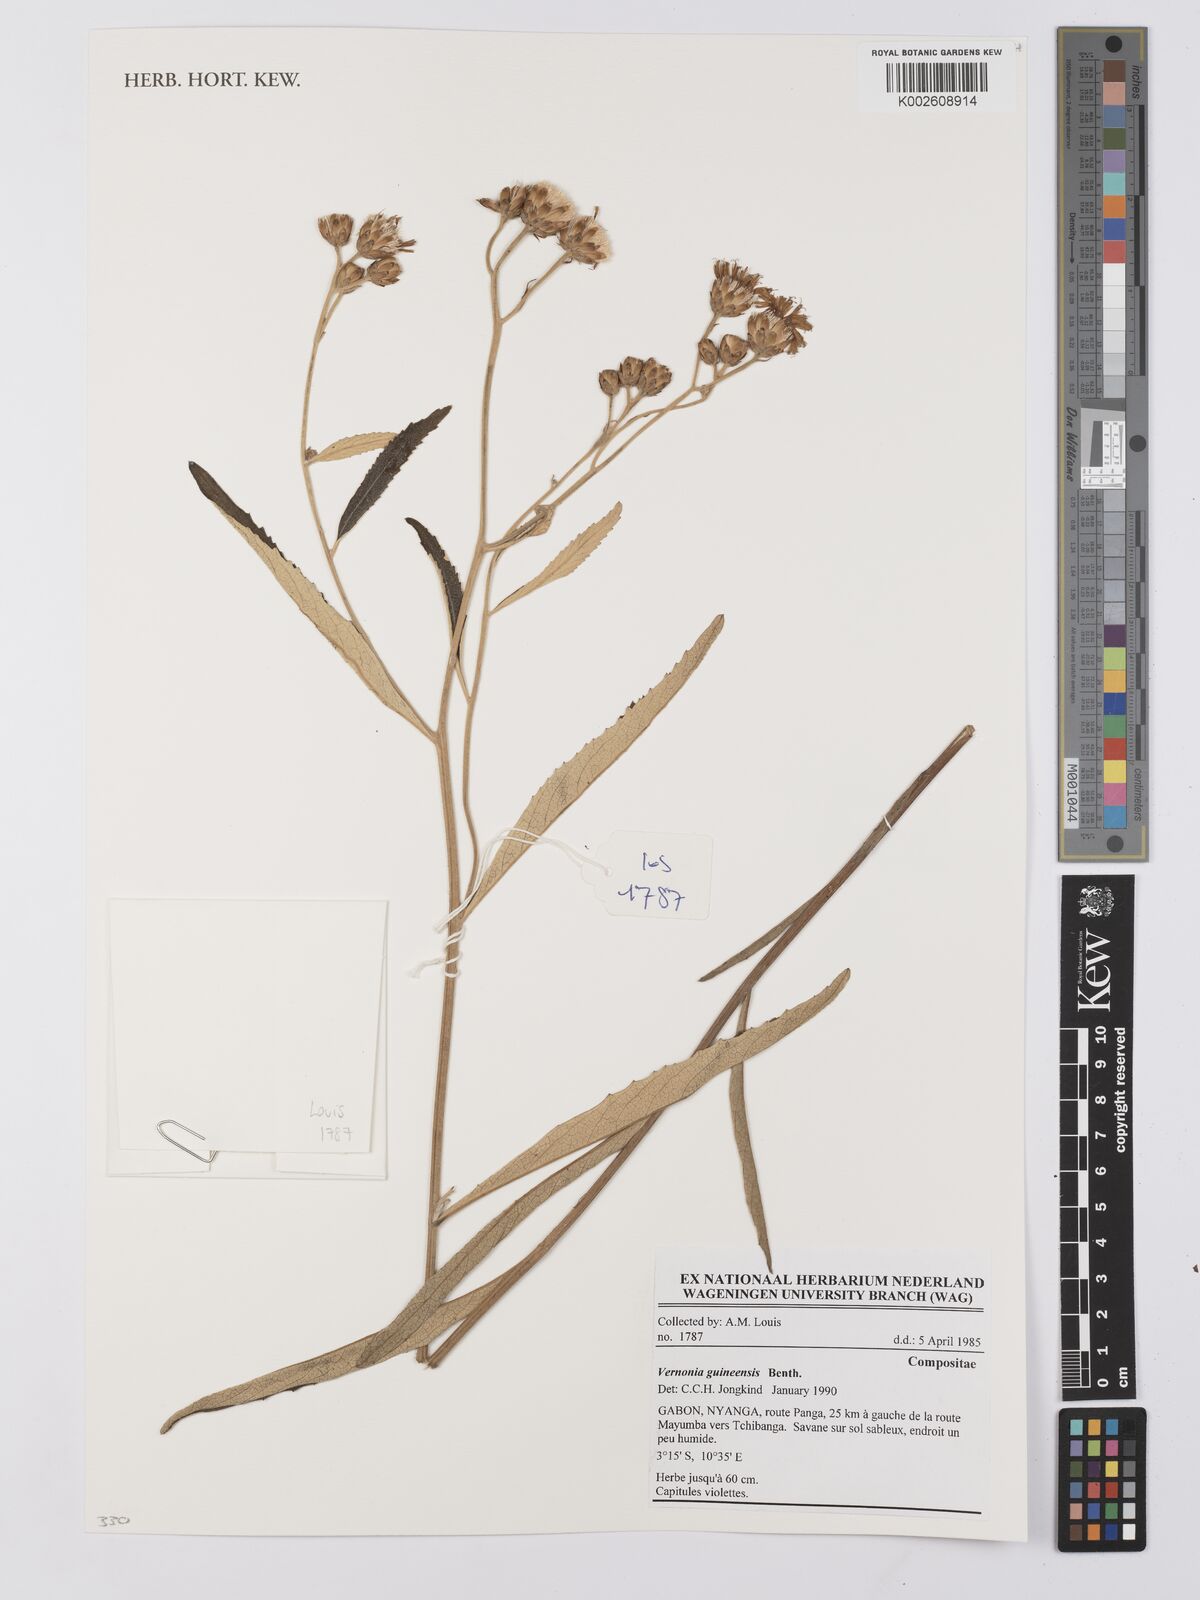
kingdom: Plantae
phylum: Tracheophyta
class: Magnoliopsida
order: Asterales
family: Asteraceae
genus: Baccharoides
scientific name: Baccharoides guineensis
